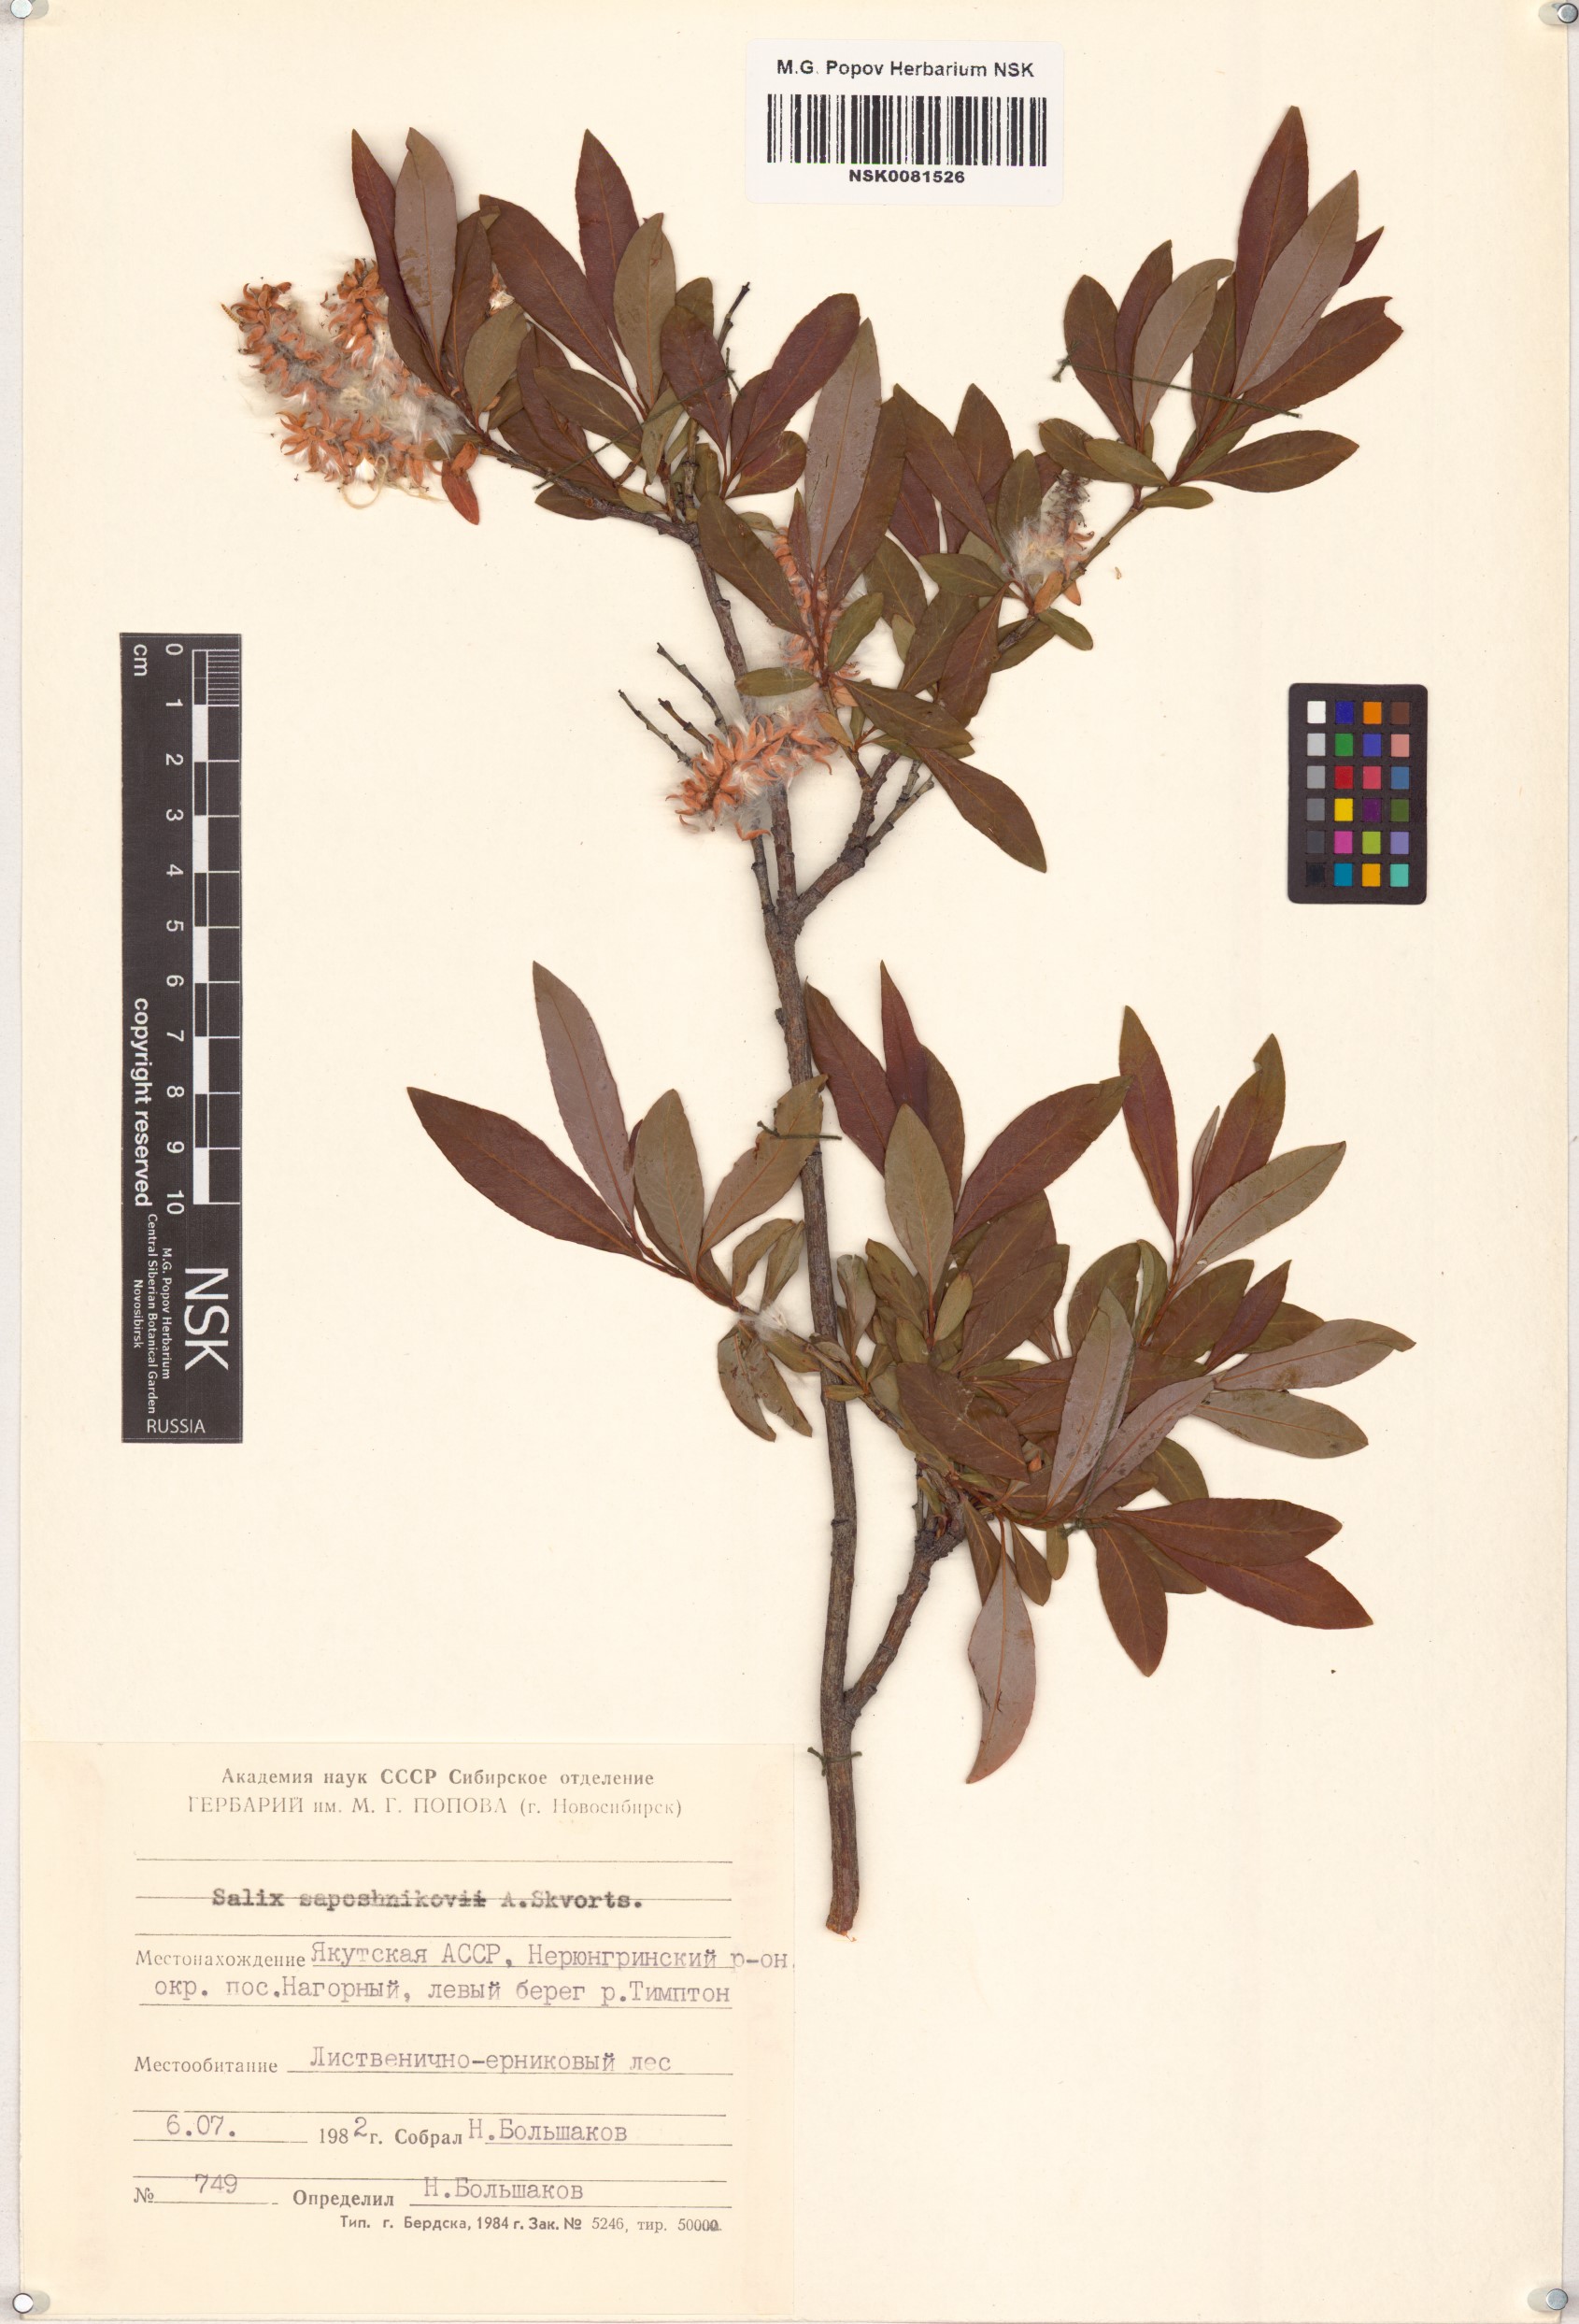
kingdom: Plantae
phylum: Tracheophyta
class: Magnoliopsida
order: Malpighiales
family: Salicaceae
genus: Salix
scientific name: Salix saposhnikovii
